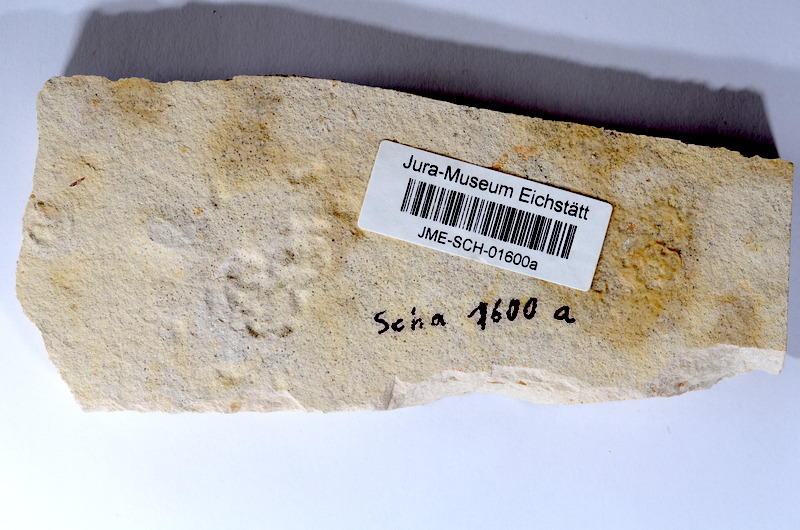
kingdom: Animalia
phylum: Chordata
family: Ascalaboidae
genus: Tharsis
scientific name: Tharsis dubius
